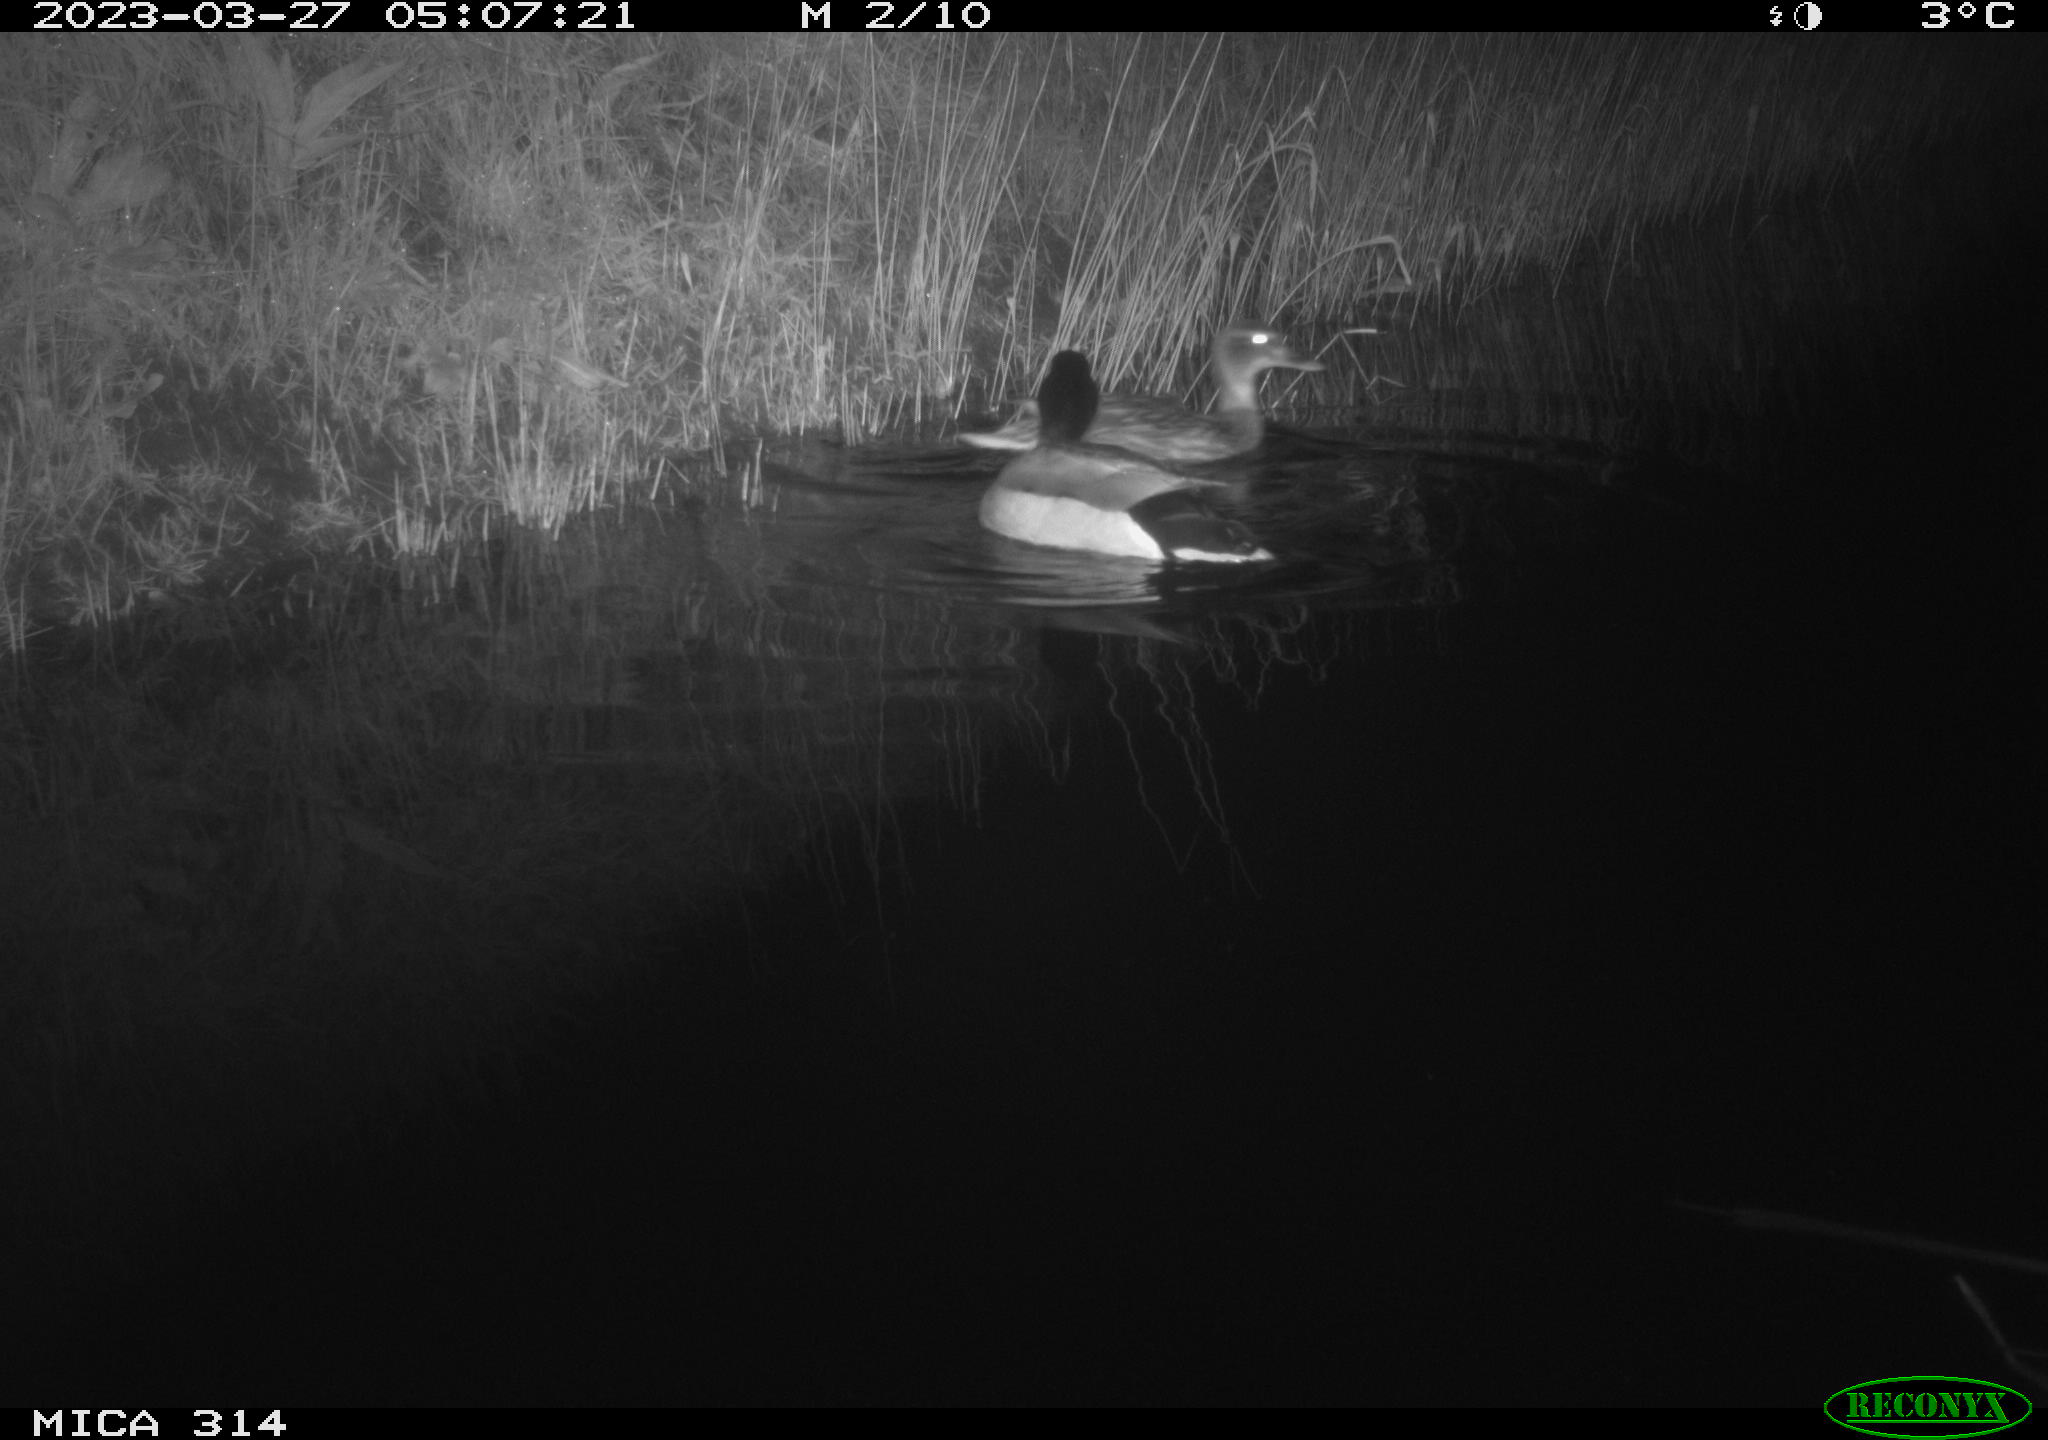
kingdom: Animalia
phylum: Chordata
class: Aves
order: Anseriformes
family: Anatidae
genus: Anas
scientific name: Anas
